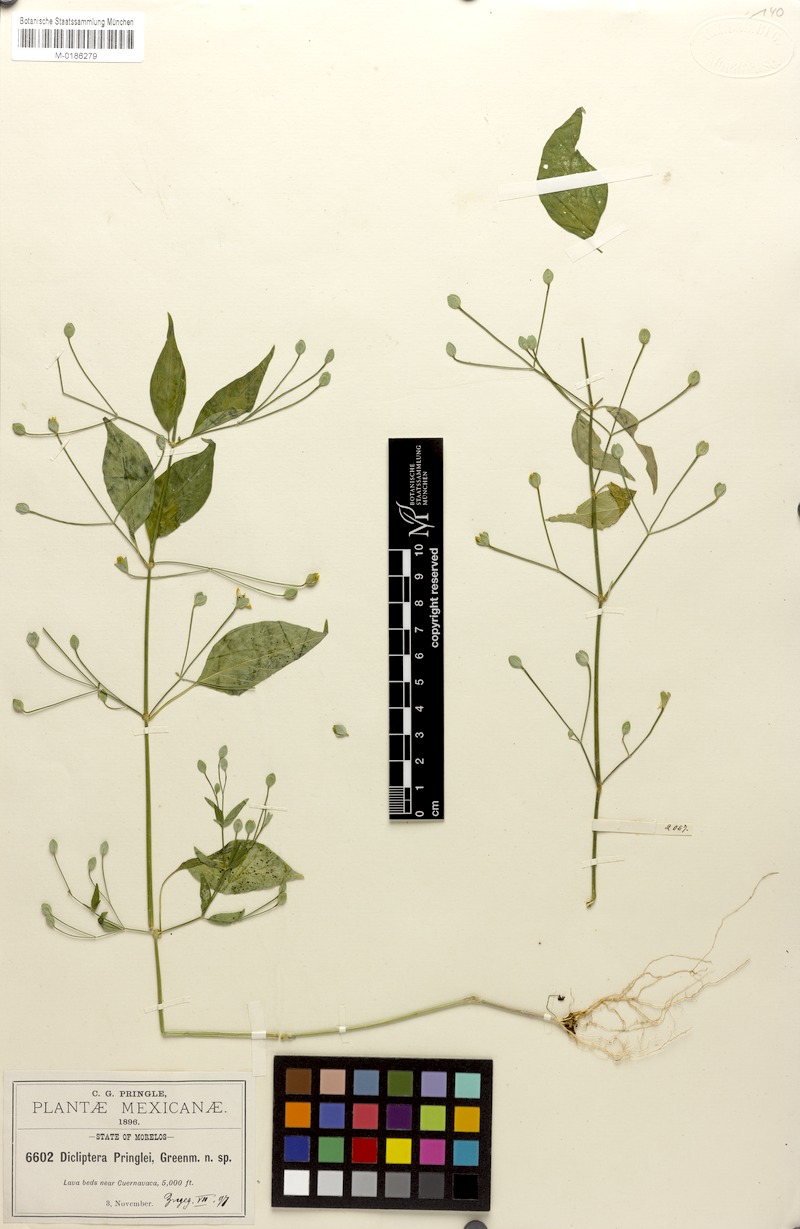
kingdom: Plantae
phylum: Tracheophyta
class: Magnoliopsida
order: Lamiales
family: Acanthaceae
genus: Dicliptera
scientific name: Dicliptera thlaspioides
